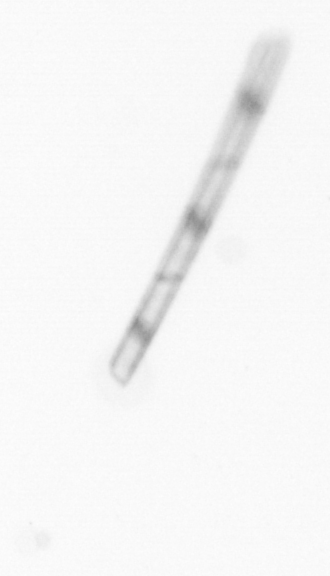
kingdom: Chromista
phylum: Ochrophyta
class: Bacillariophyceae
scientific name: Bacillariophyceae
